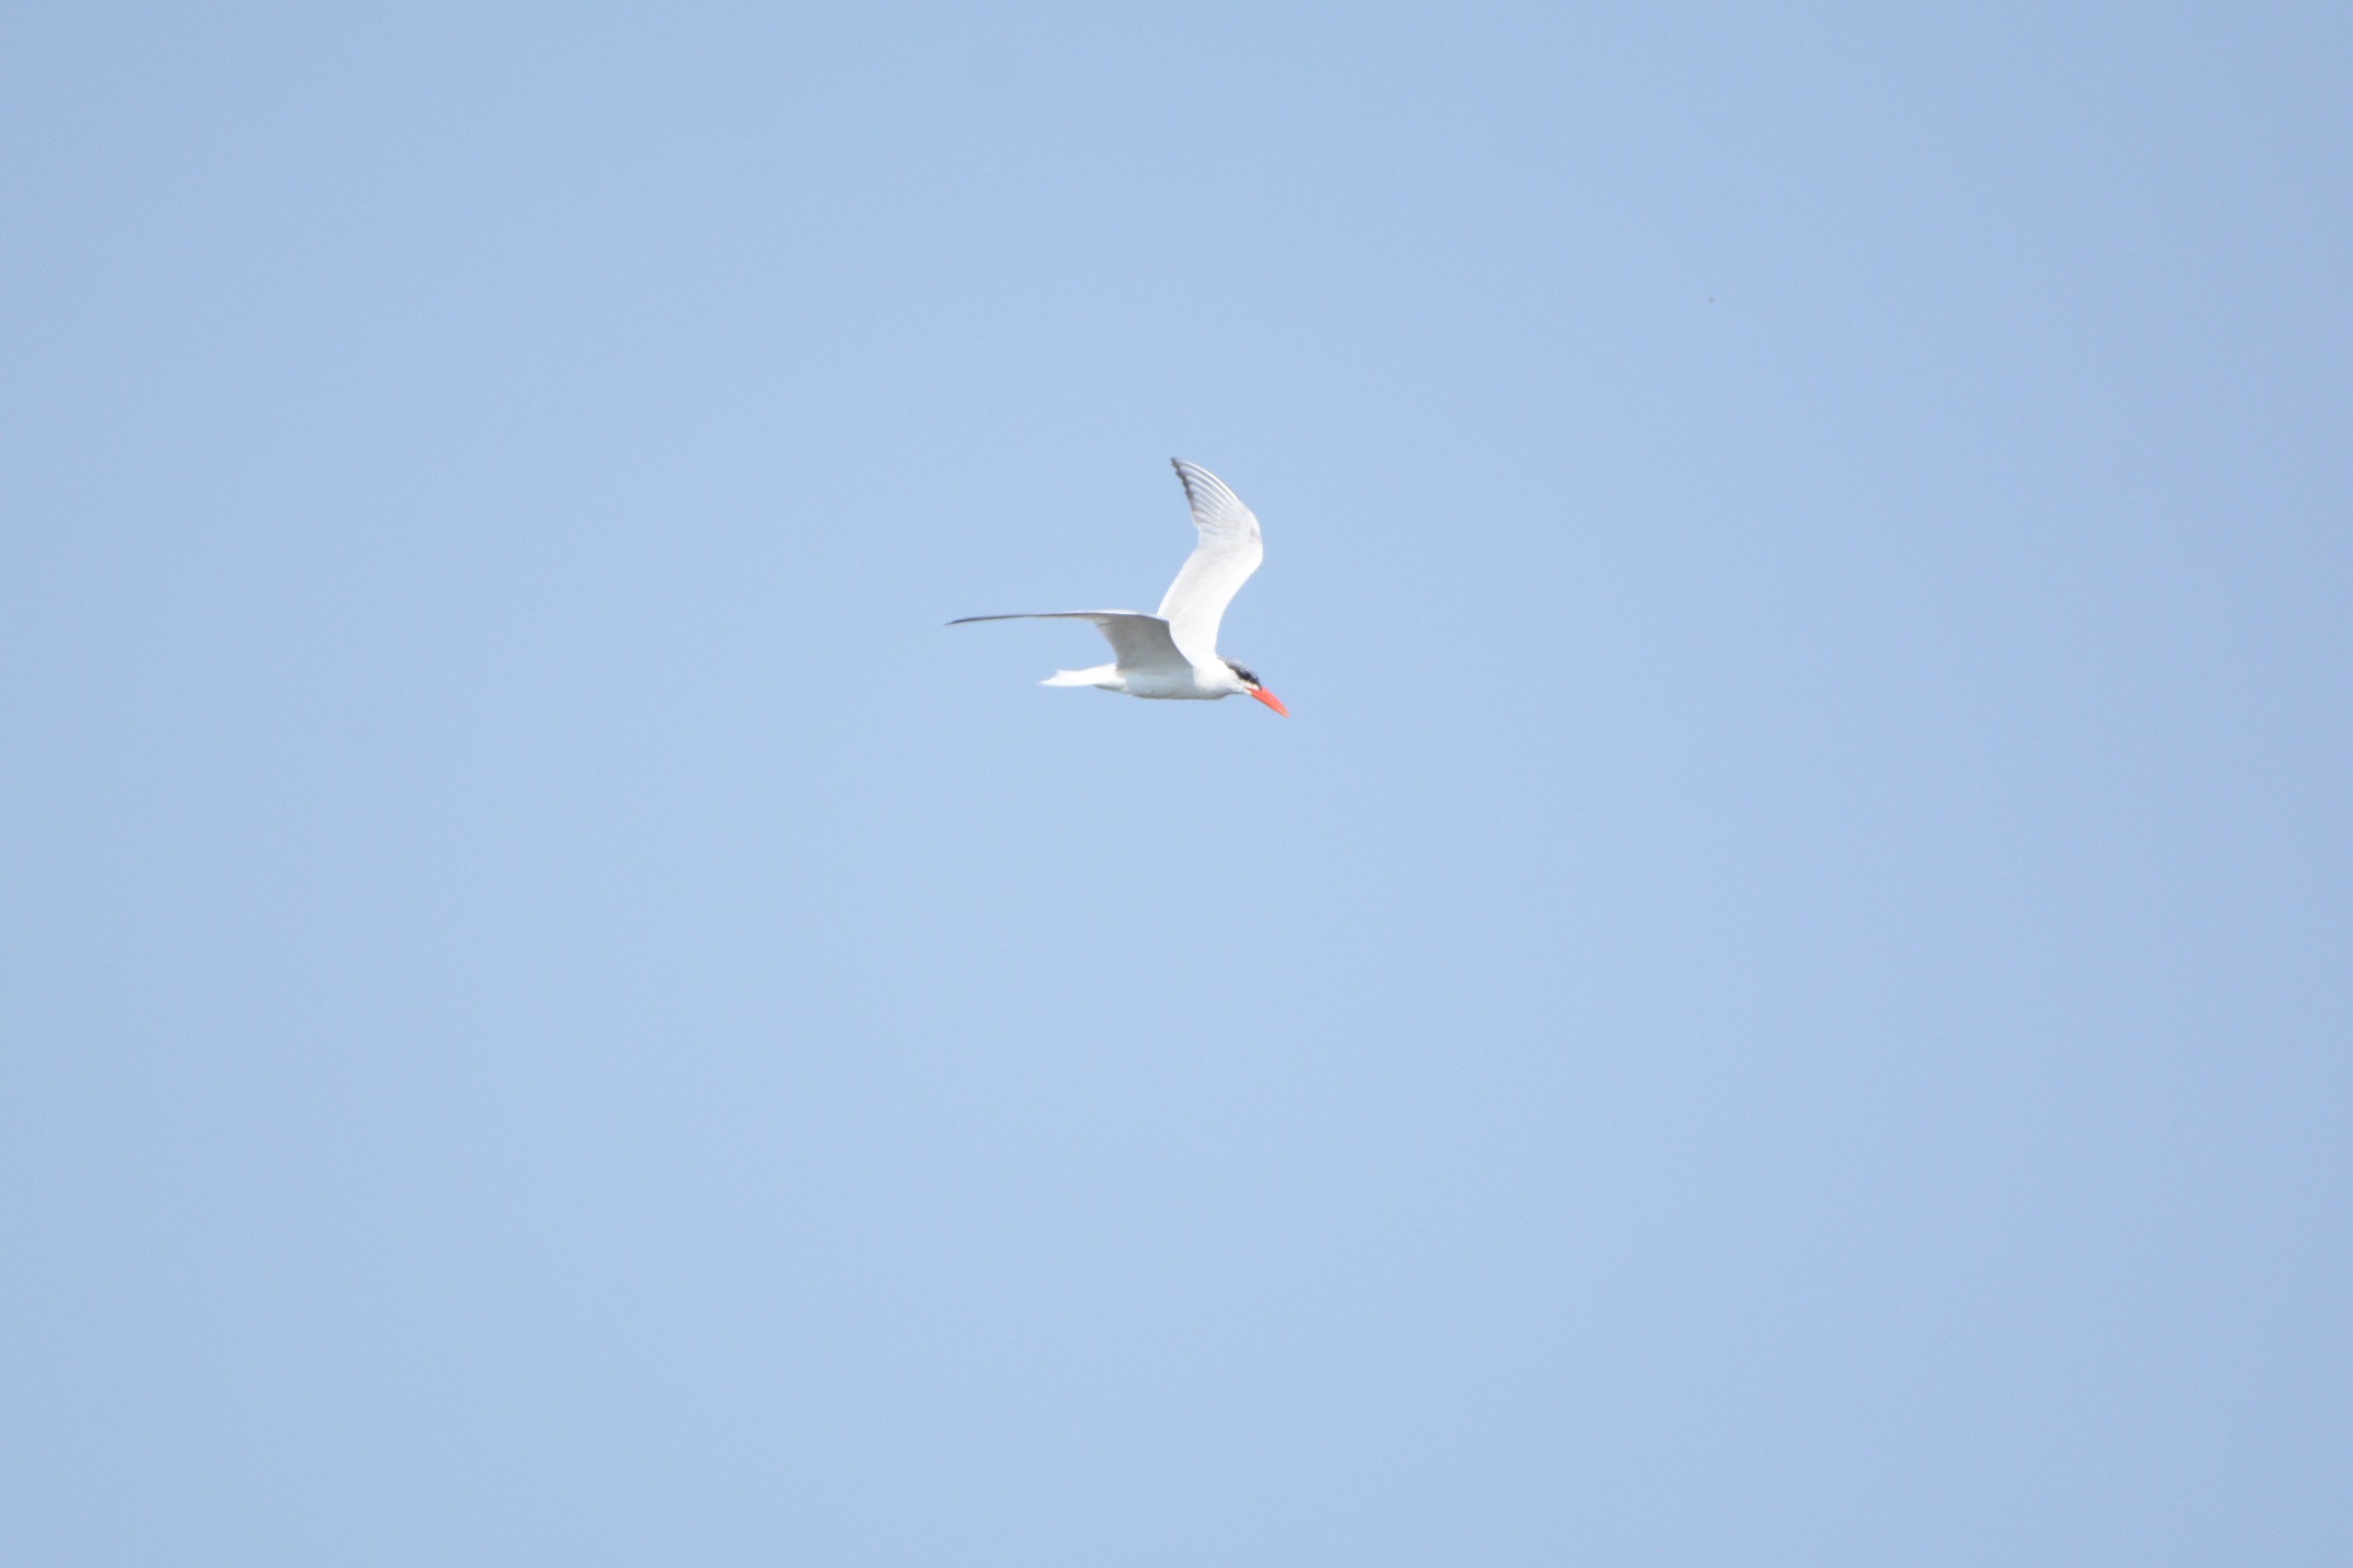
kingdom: Animalia
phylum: Chordata
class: Aves
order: Charadriiformes
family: Laridae
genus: Hydroprogne
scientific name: Hydroprogne caspia
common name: Rovterne
